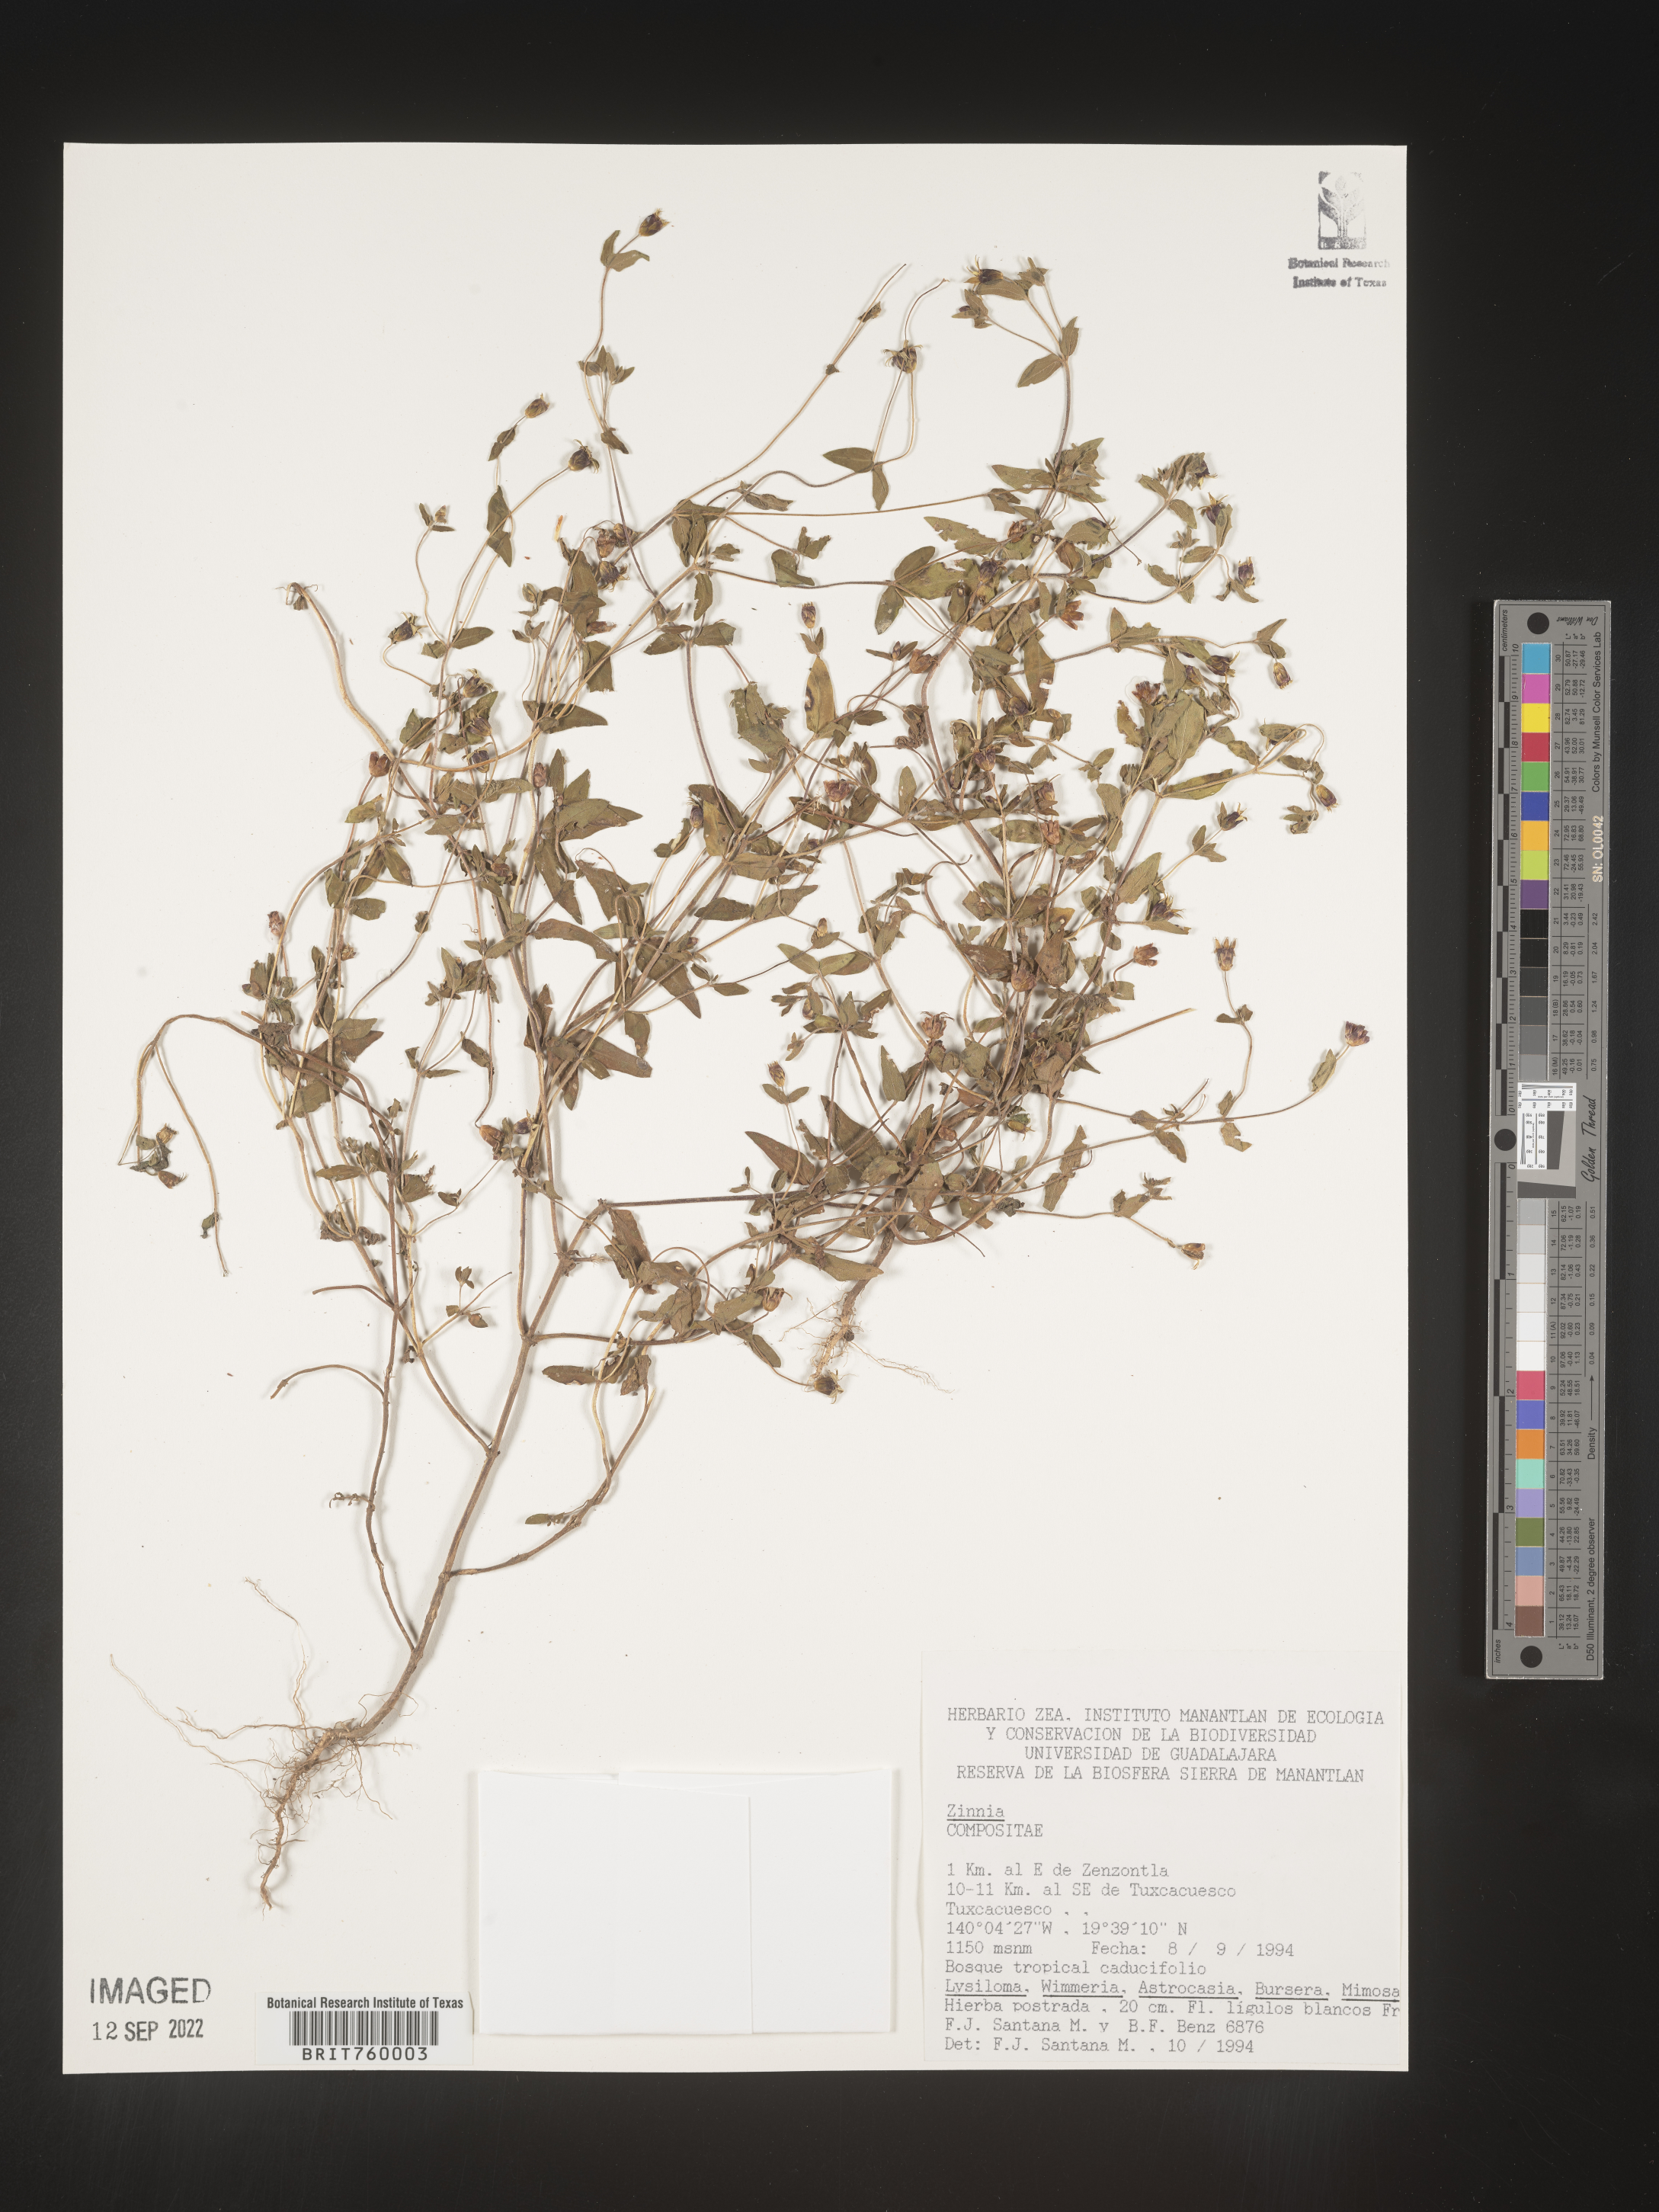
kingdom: Plantae
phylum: Tracheophyta
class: Magnoliopsida
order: Asterales
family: Asteraceae
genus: Zinnia
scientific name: Zinnia
